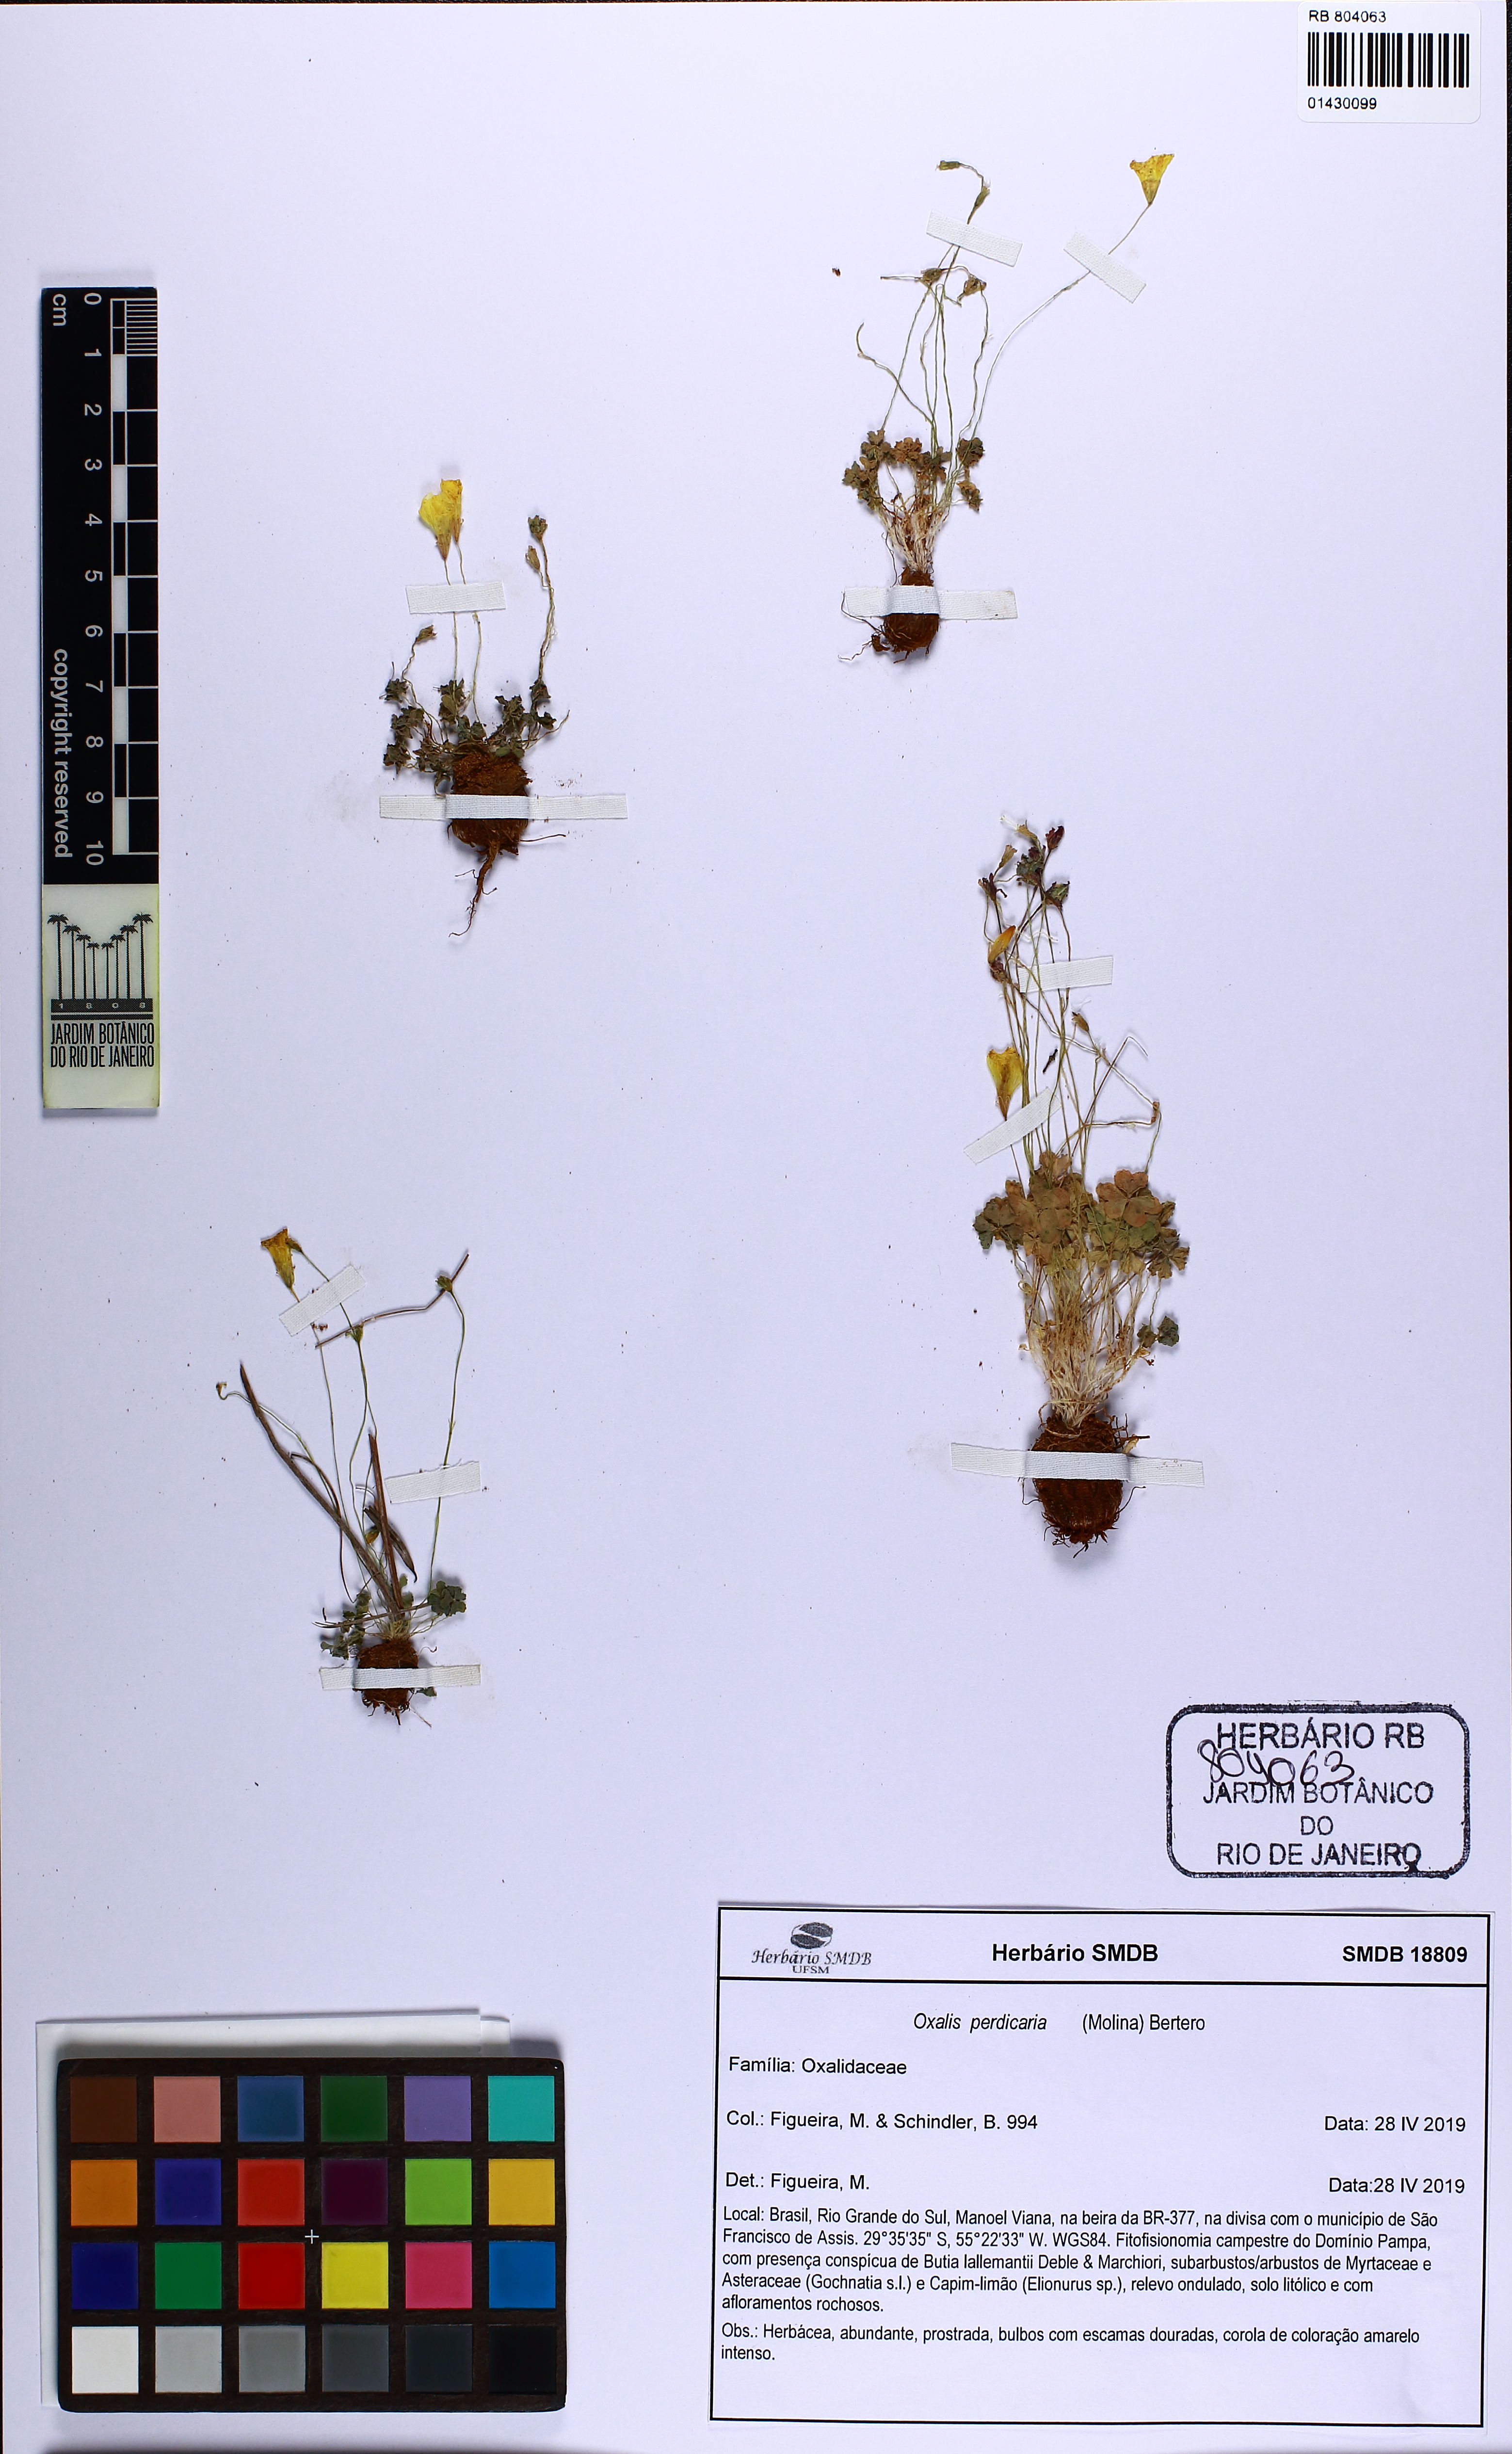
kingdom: Plantae
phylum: Tracheophyta
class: Magnoliopsida
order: Oxalidales
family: Oxalidaceae
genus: Oxalis
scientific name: Oxalis perdicaria
